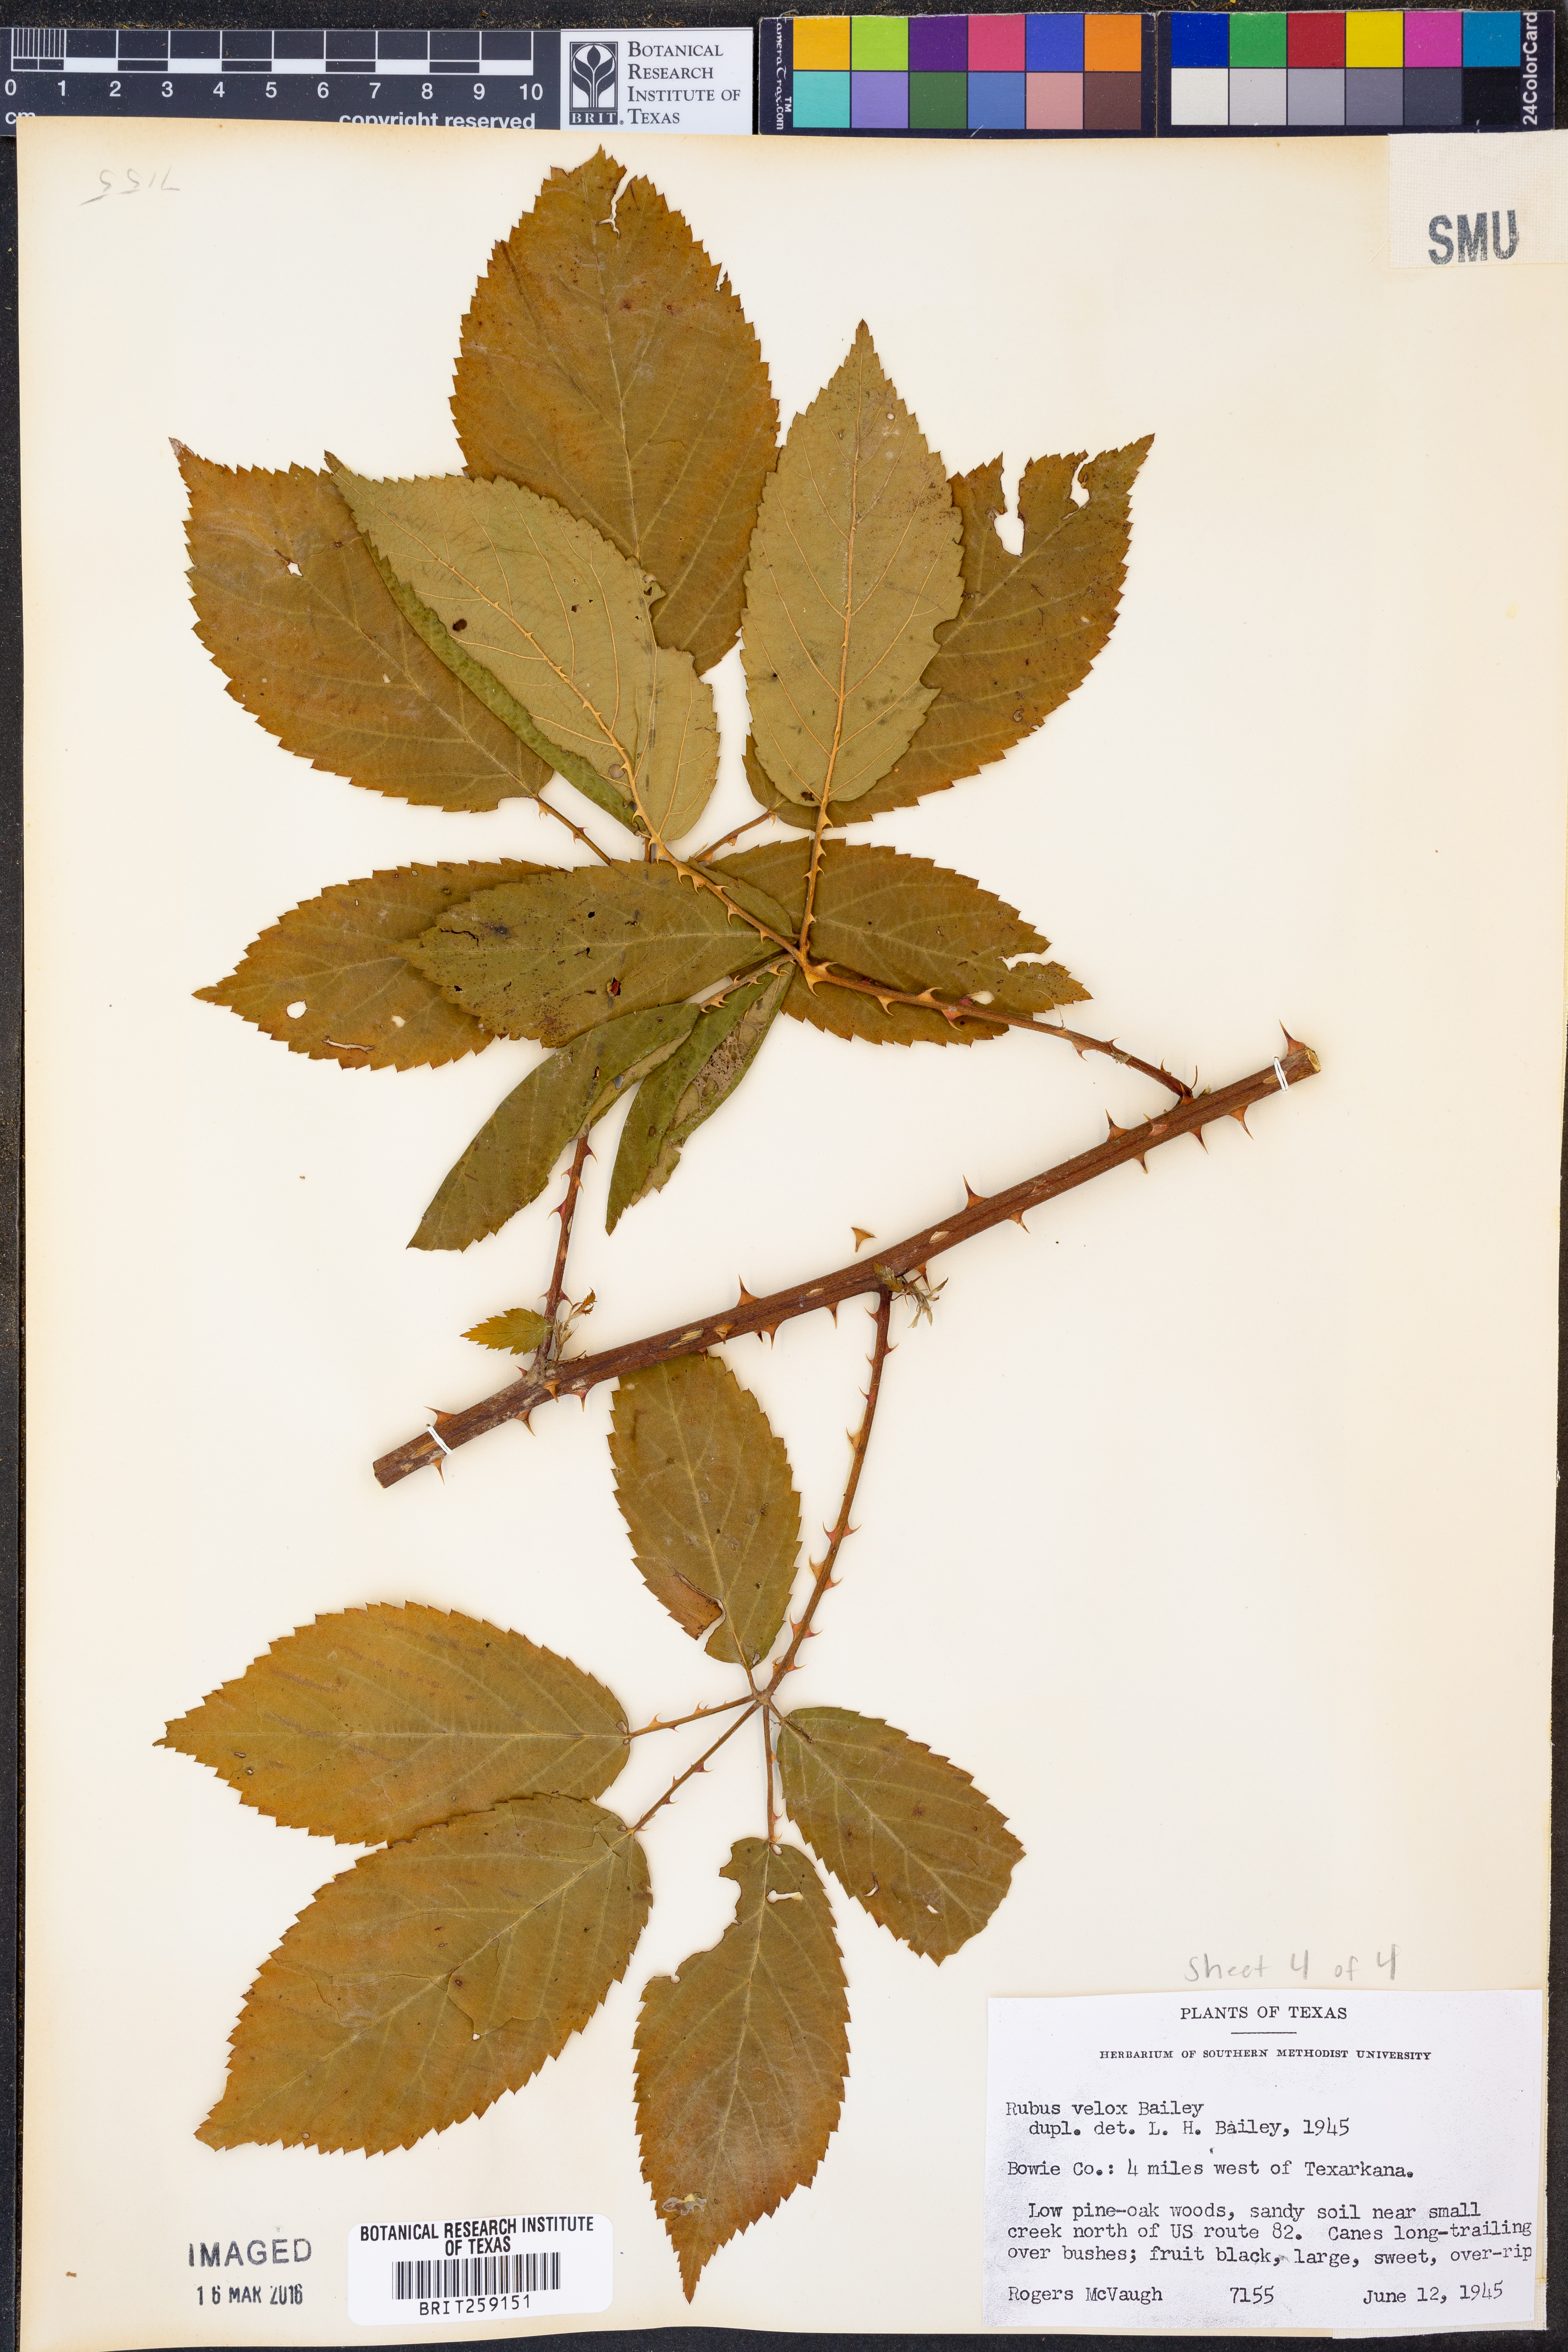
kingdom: Plantae
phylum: Tracheophyta
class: Magnoliopsida
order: Rosales
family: Rosaceae
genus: Rubus
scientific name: Rubus velox
